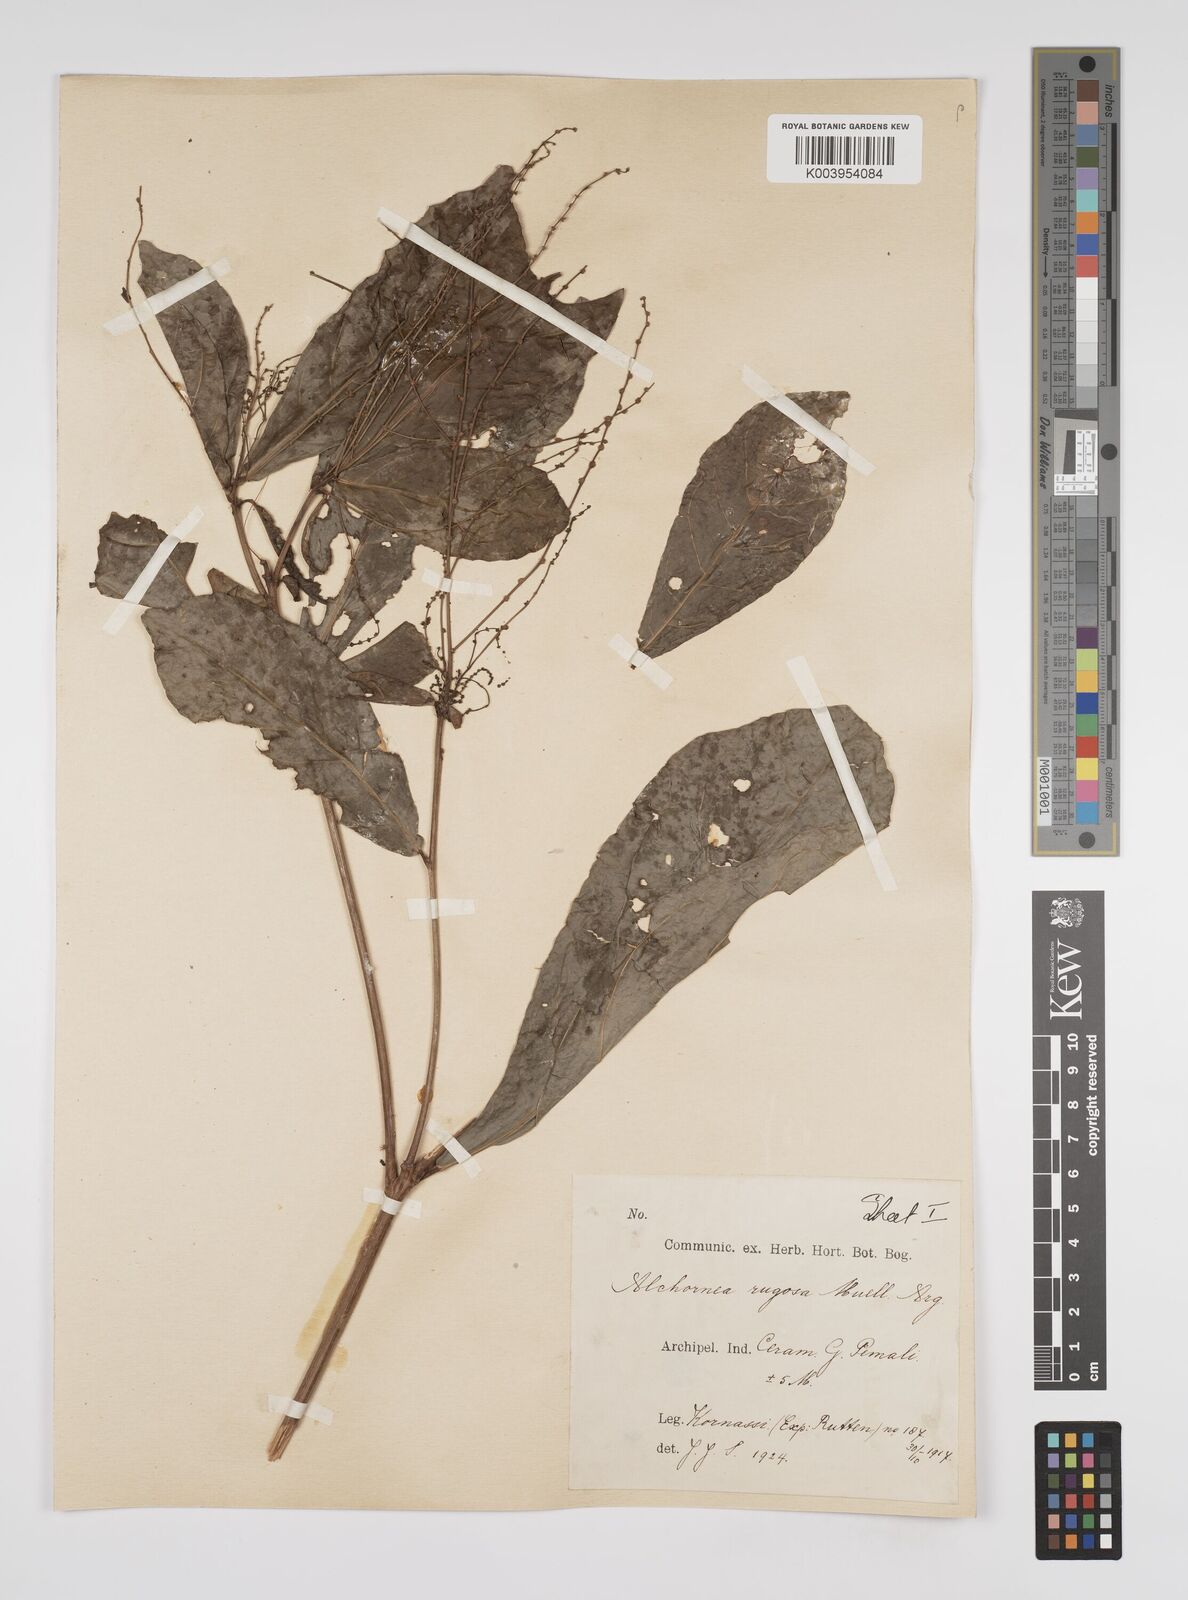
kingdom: Plantae
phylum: Tracheophyta
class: Magnoliopsida
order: Malpighiales
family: Euphorbiaceae
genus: Alchornea
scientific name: Alchornea rugosa
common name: Alchorntree
